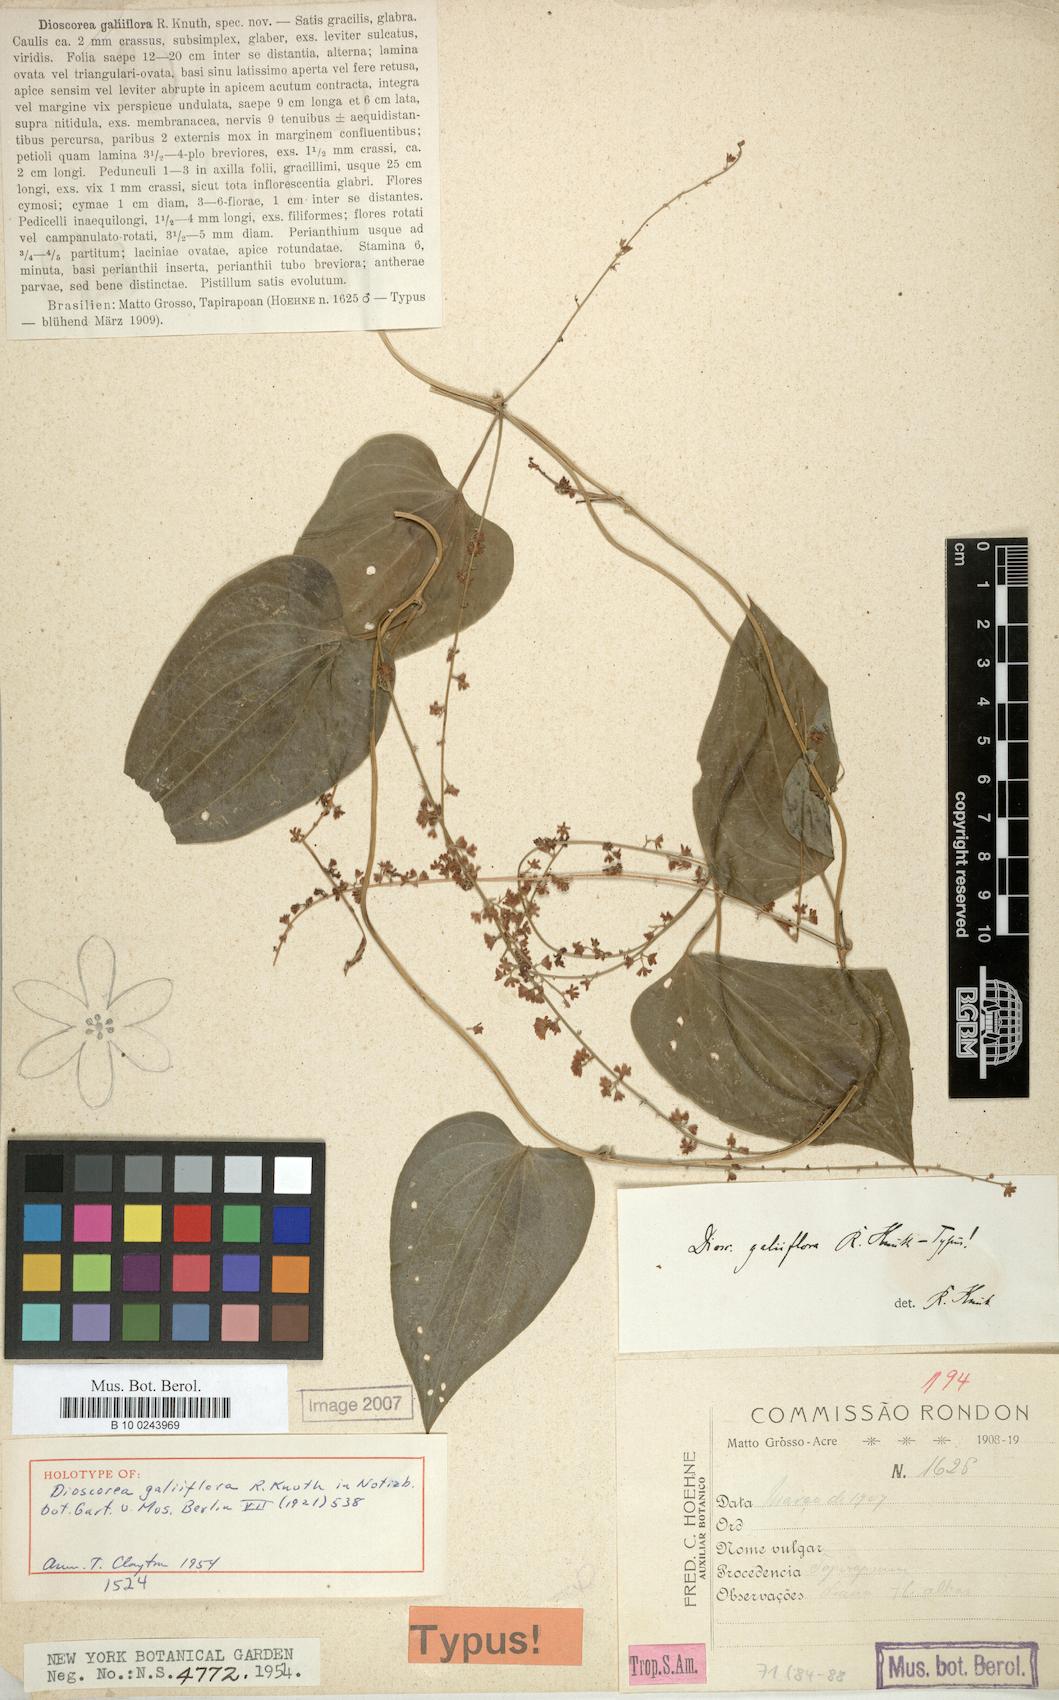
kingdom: Plantae
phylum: Tracheophyta
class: Liliopsida
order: Dioscoreales
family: Dioscoreaceae
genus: Dioscorea
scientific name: Dioscorea galiiflora
